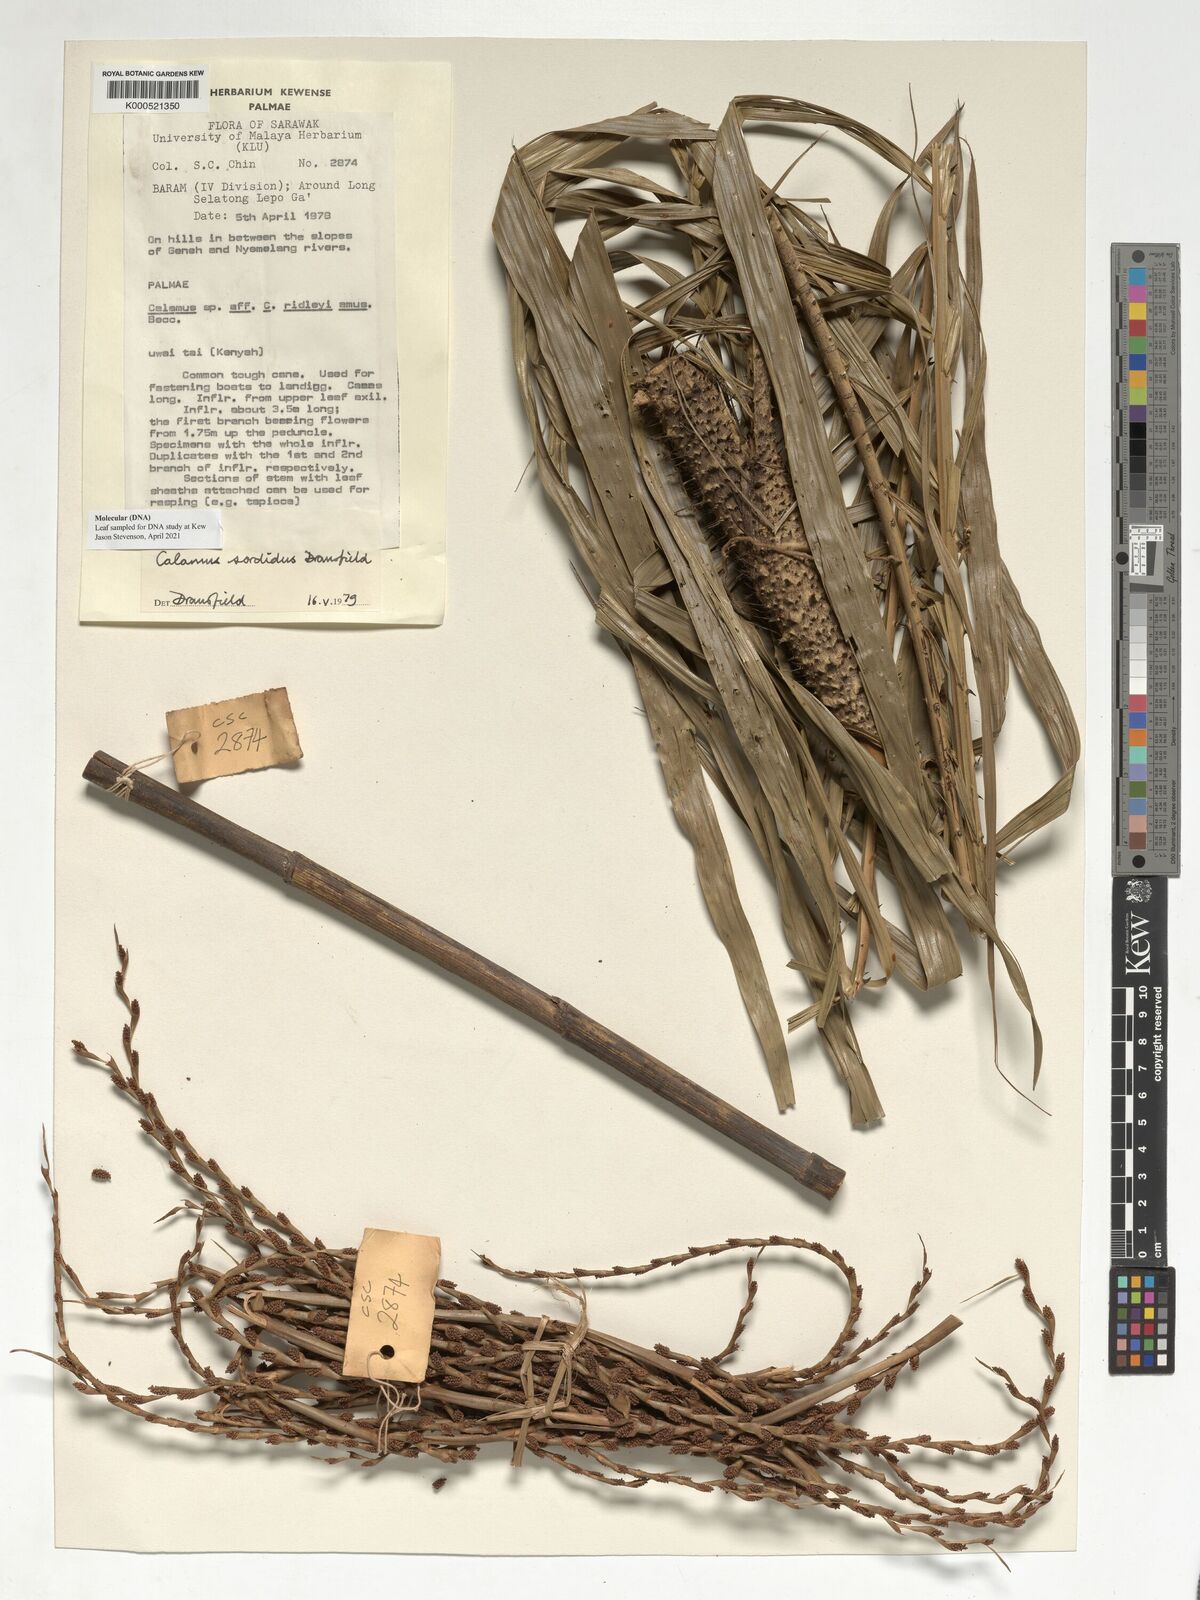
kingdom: Plantae
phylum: Tracheophyta
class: Liliopsida
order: Arecales
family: Arecaceae
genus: Calamus
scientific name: Calamus sordidus
